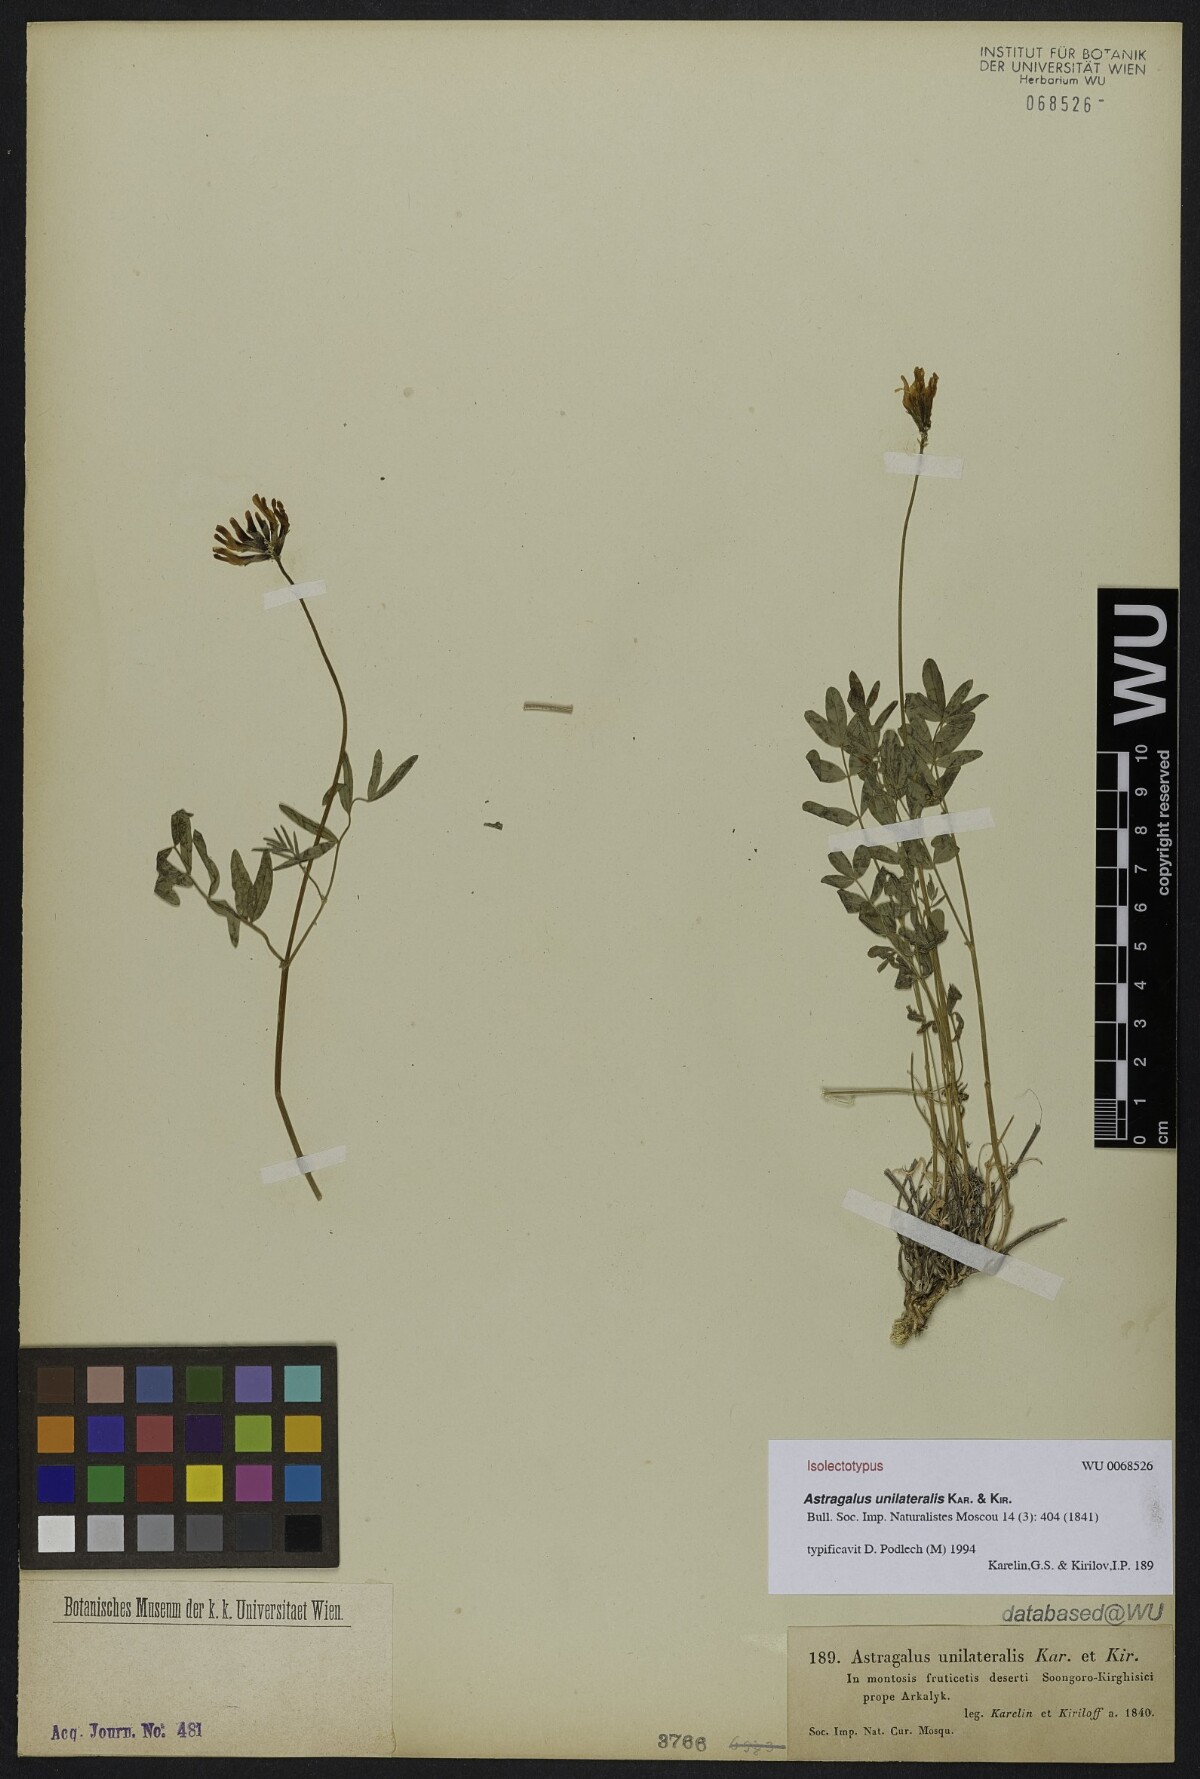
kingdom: Plantae
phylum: Tracheophyta
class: Magnoliopsida
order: Fabales
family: Fabaceae
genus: Astragalus
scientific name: Astragalus unilateralis
